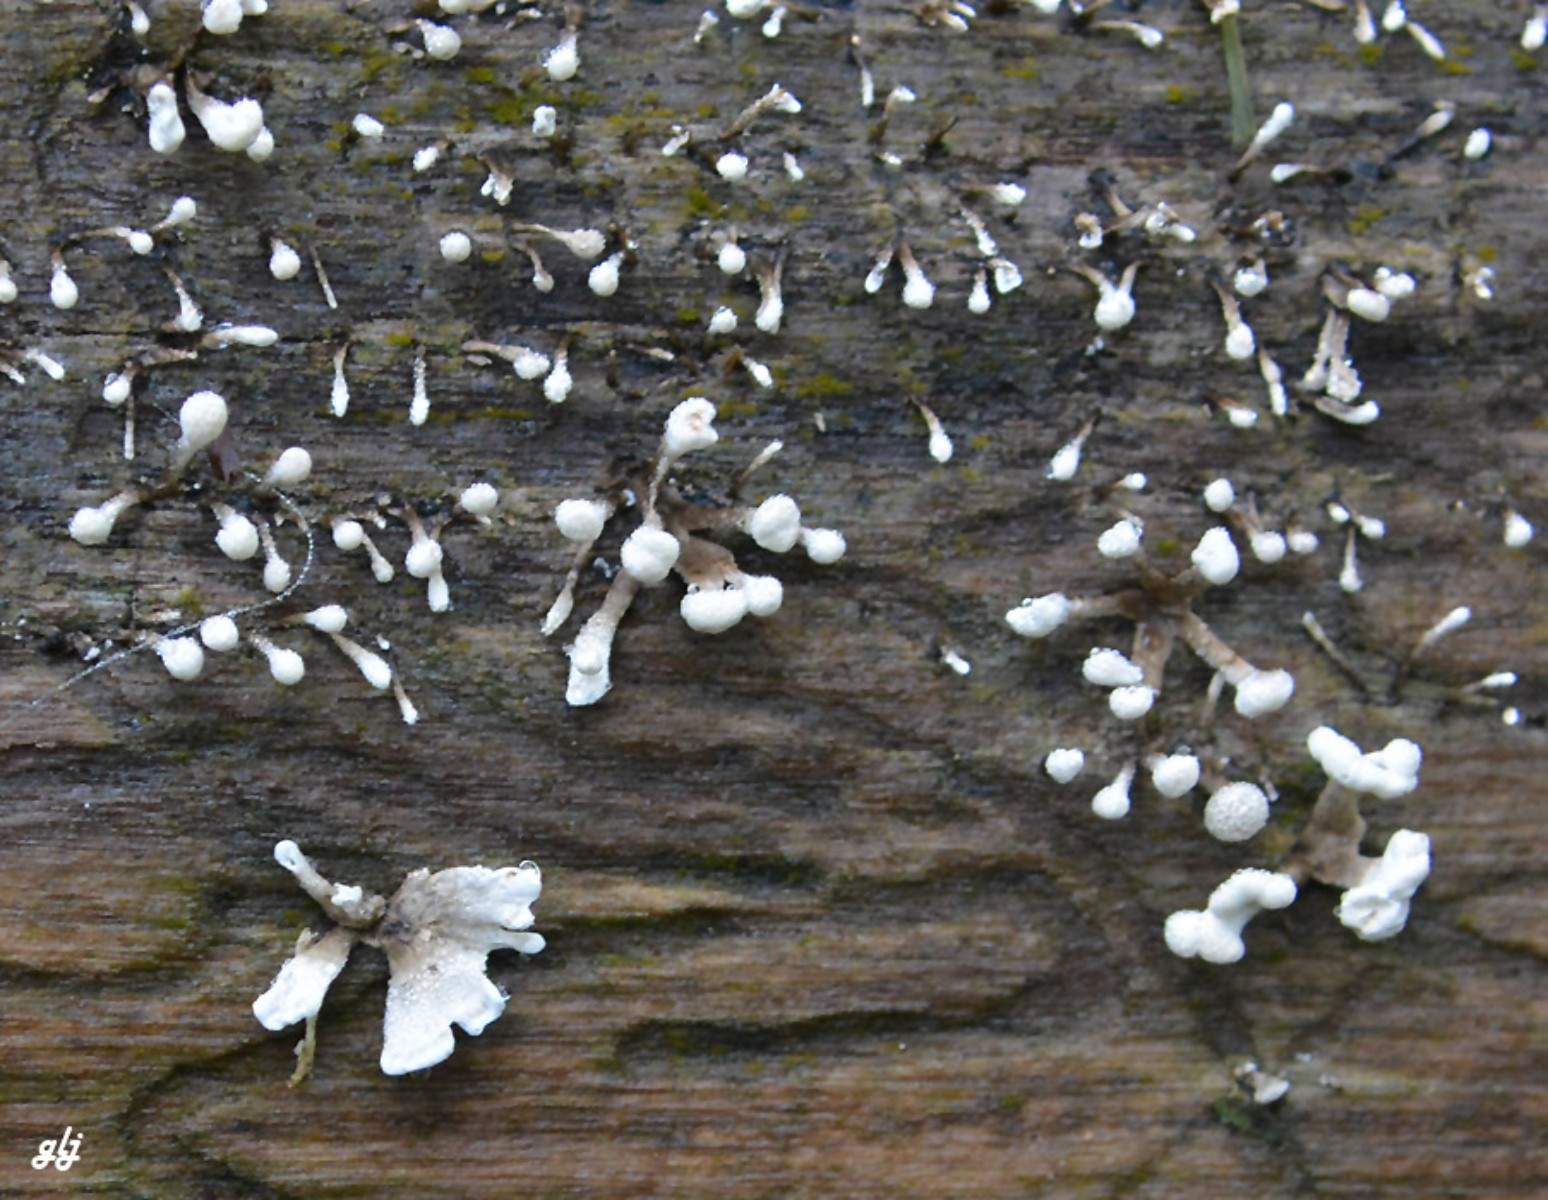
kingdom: Fungi
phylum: Basidiomycota
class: Atractiellomycetes
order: Atractiellales
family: Phleogenaceae
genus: Phleogena
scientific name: Phleogena faginea
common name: pudderkølle
